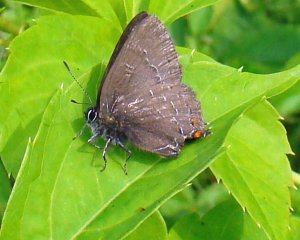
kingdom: Animalia
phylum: Arthropoda
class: Insecta
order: Lepidoptera
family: Lycaenidae
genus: Satyrium
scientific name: Satyrium calanus
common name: Banded Hairstreak
